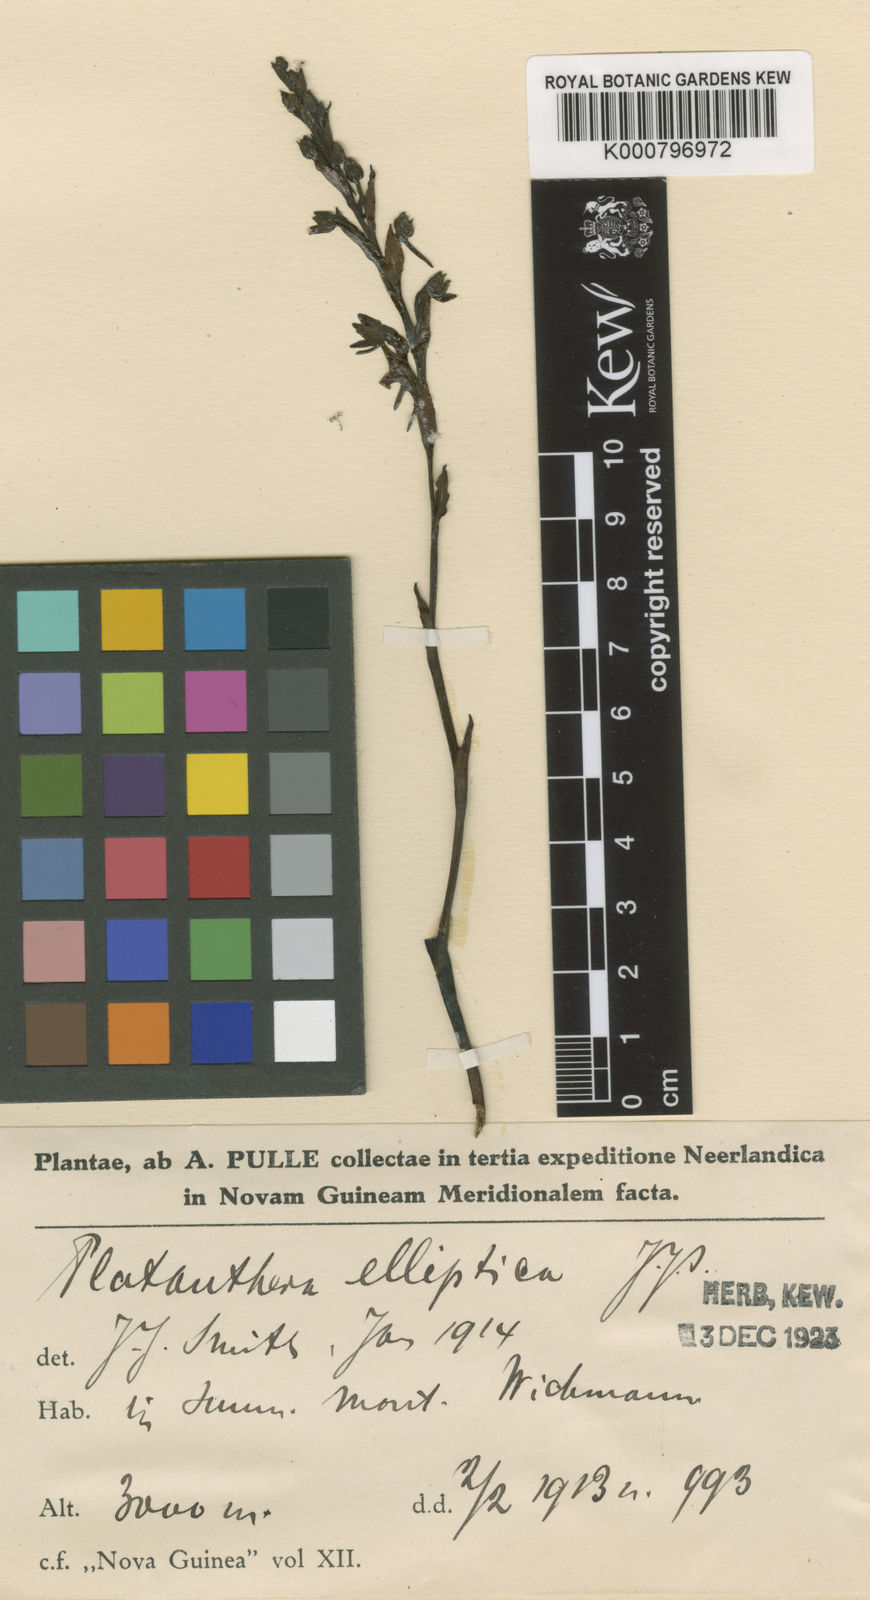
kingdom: Plantae
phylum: Tracheophyta
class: Liliopsida
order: Asparagales
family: Orchidaceae
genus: Platanthera
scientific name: Platanthera elliptica
